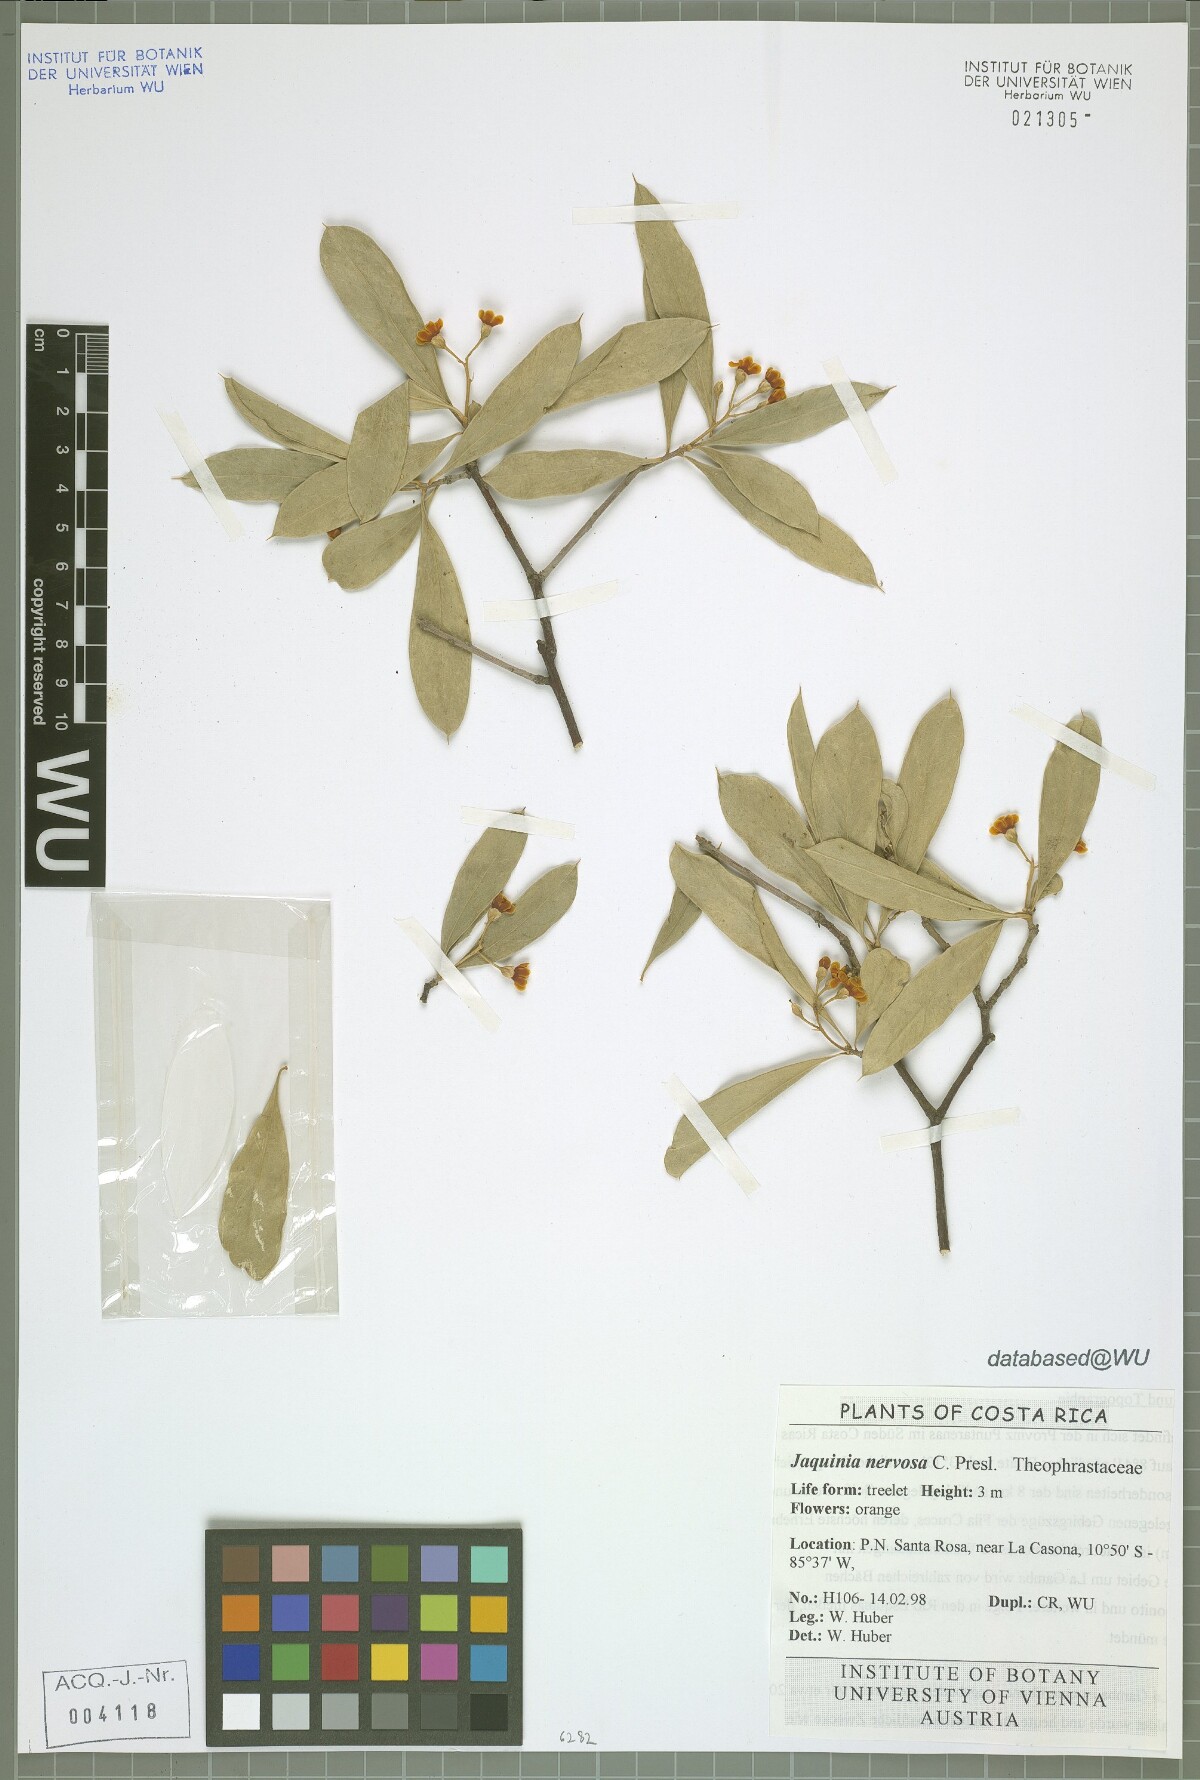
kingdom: Plantae
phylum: Tracheophyta
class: Magnoliopsida
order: Ericales
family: Primulaceae
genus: Bonellia
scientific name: Bonellia nervosa
